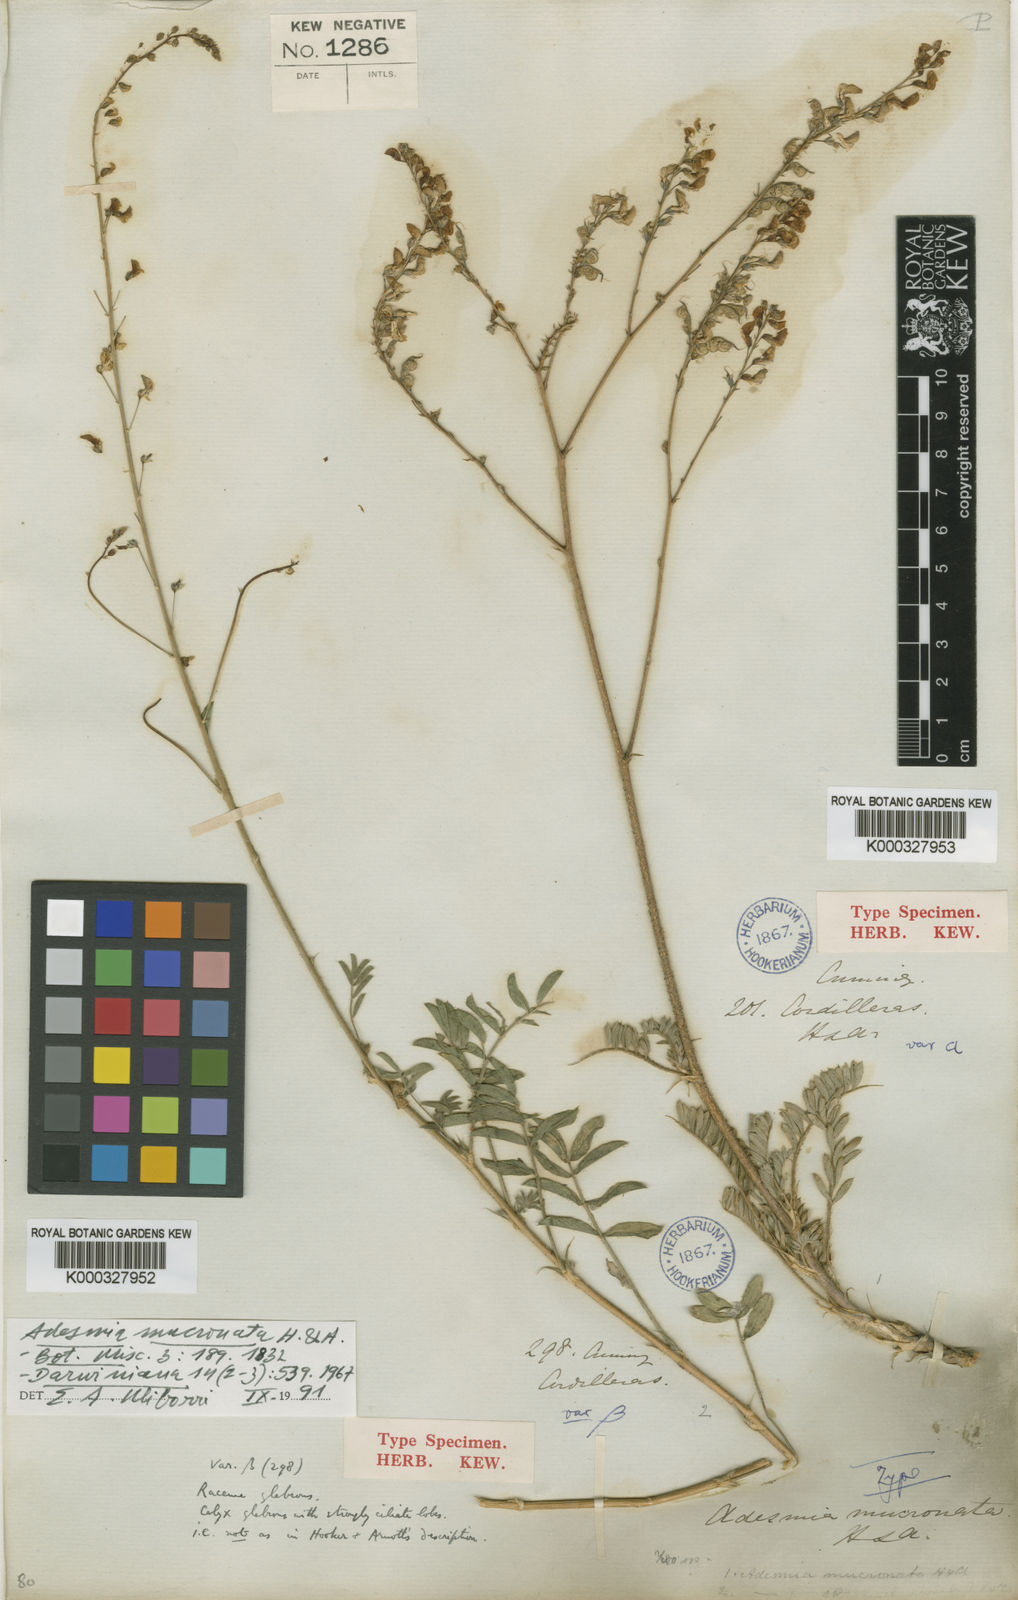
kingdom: Plantae
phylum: Tracheophyta
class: Magnoliopsida
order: Fabales
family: Fabaceae
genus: Adesmia
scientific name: Adesmia mucronata
